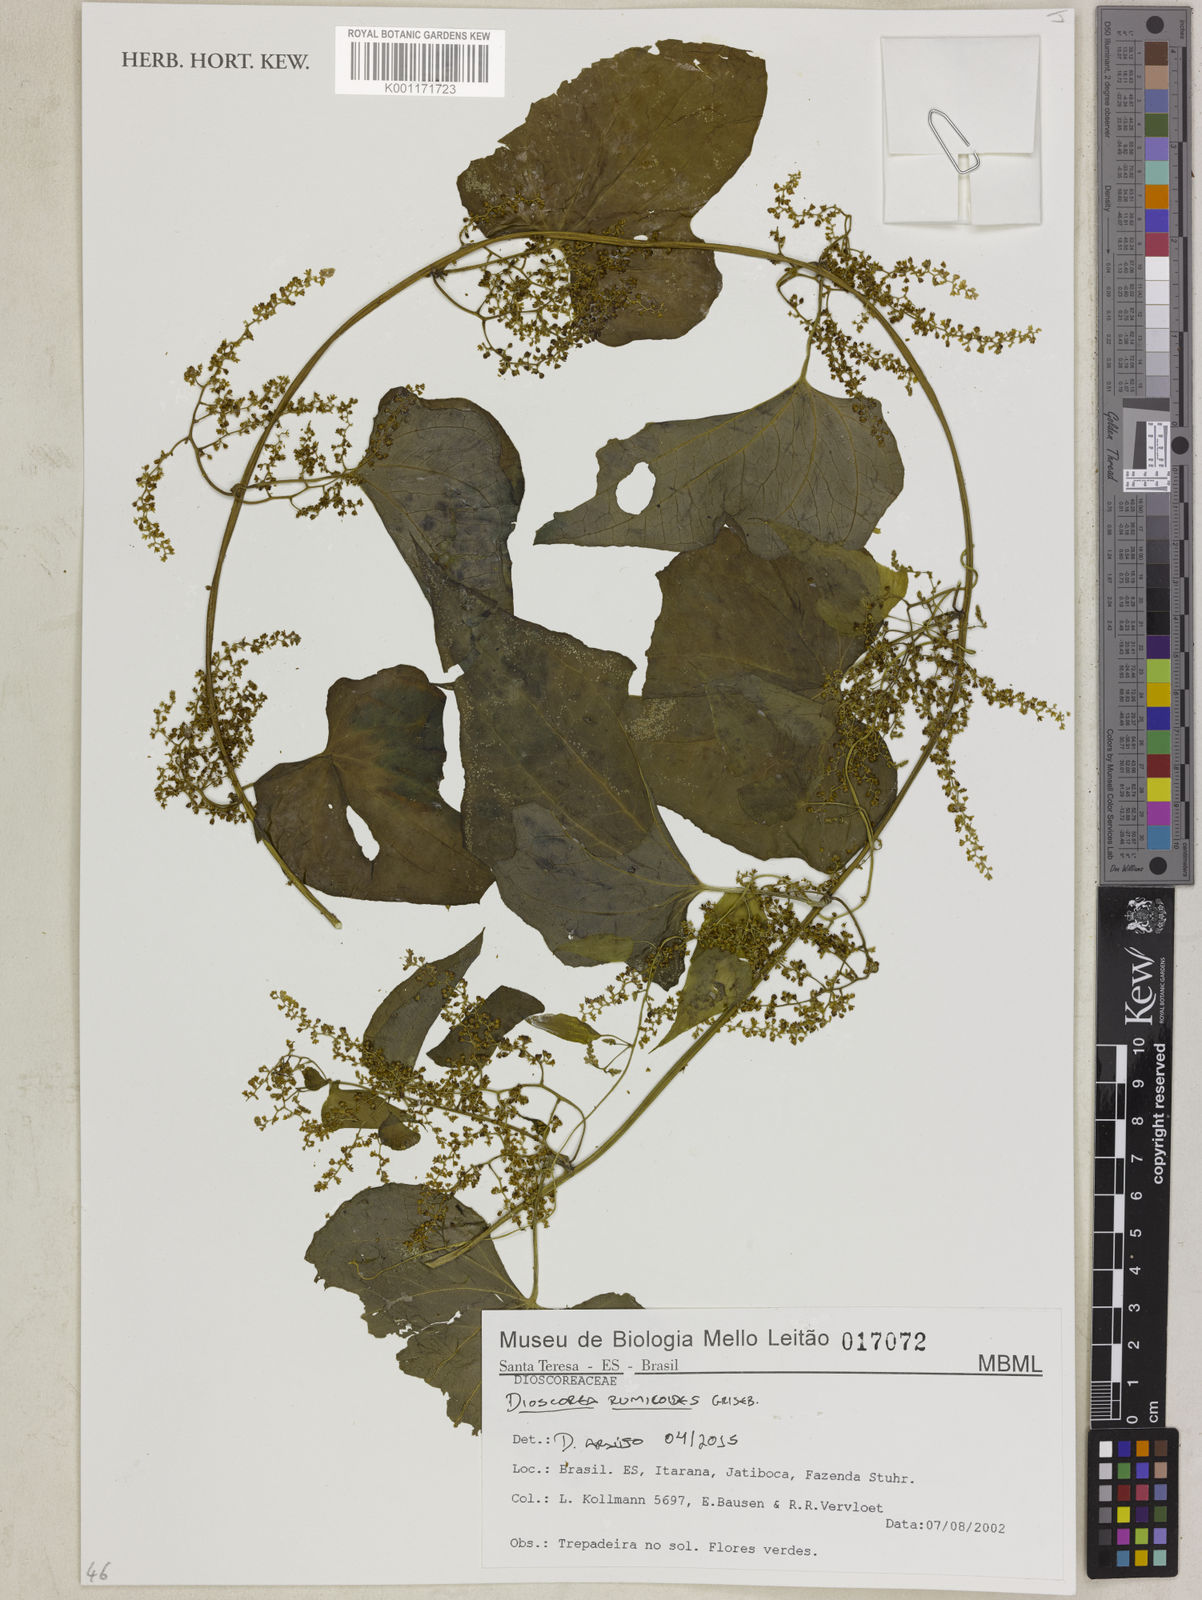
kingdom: Plantae
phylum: Tracheophyta
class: Liliopsida
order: Dioscoreales
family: Dioscoreaceae
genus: Dioscorea
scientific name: Dioscorea rumicoides
